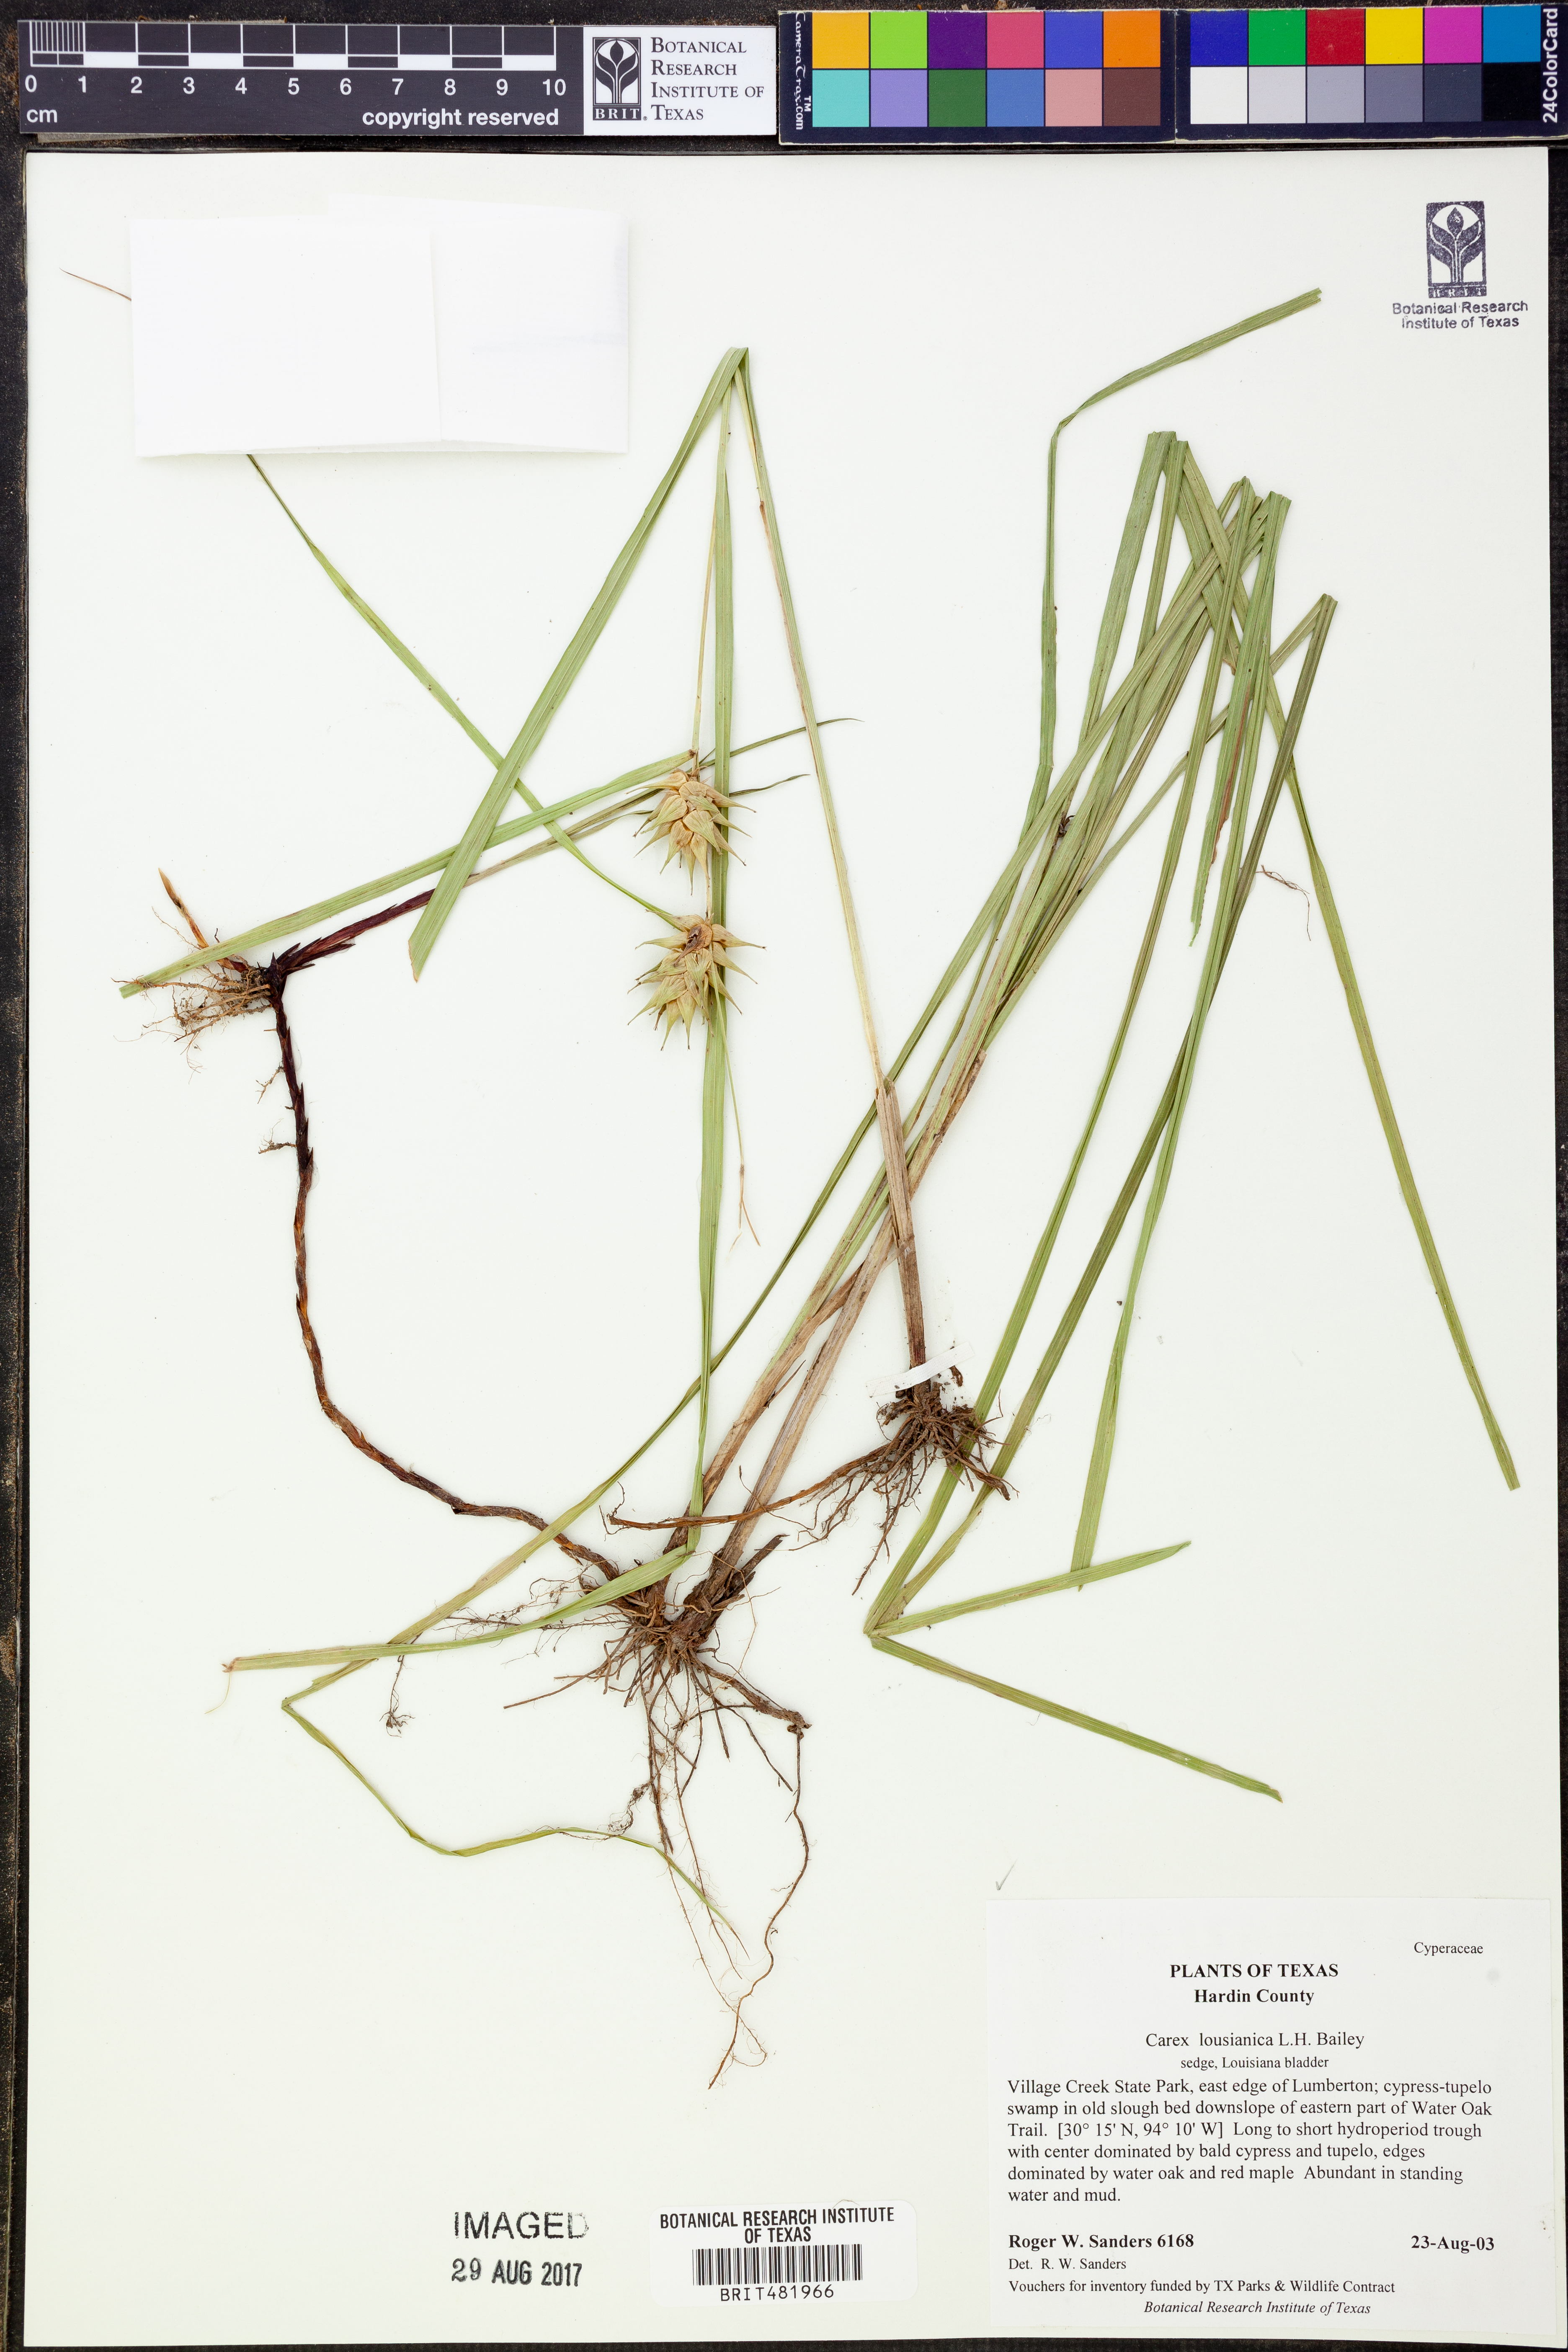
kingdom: Plantae
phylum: Tracheophyta
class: Liliopsida
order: Poales
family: Cyperaceae
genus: Carex
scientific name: Carex louisianica
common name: Louisiana sedge
